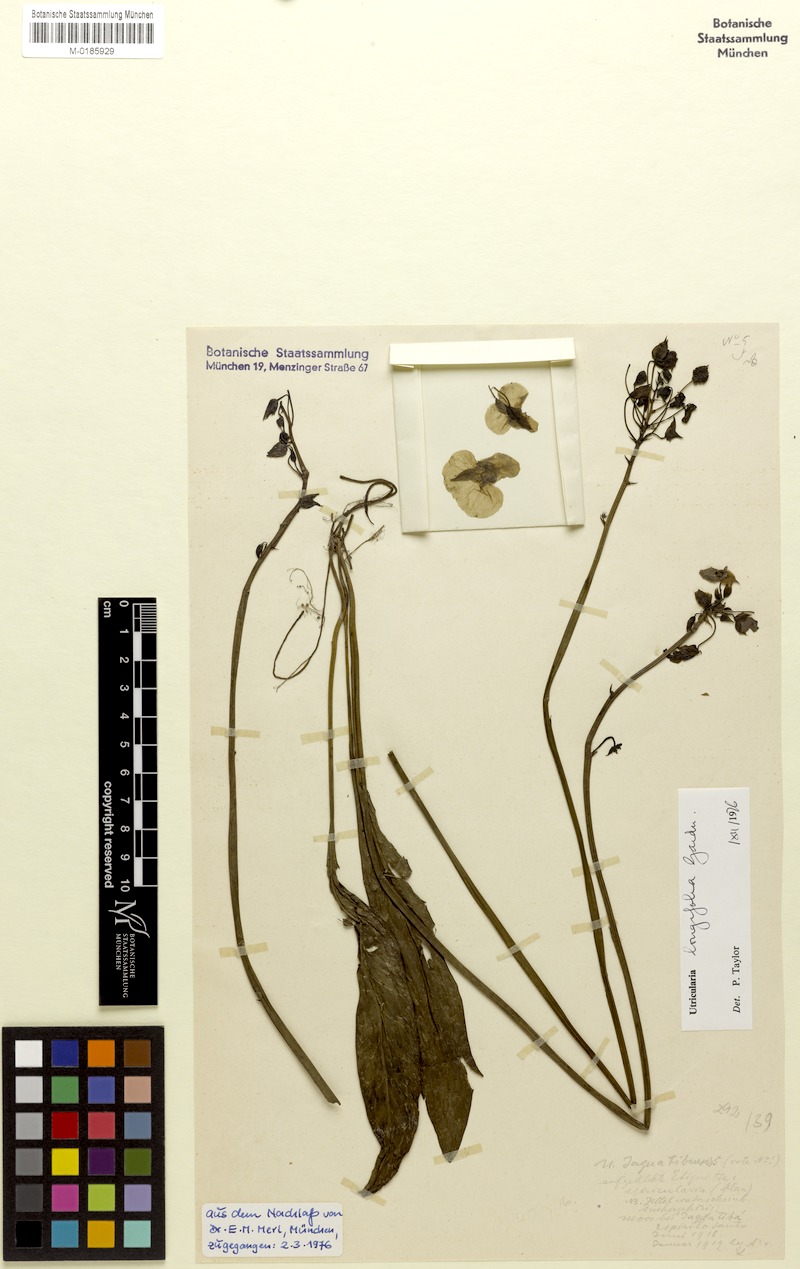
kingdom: Plantae
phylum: Tracheophyta
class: Magnoliopsida
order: Lamiales
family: Lentibulariaceae
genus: Utricularia
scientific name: Utricularia longifolia
